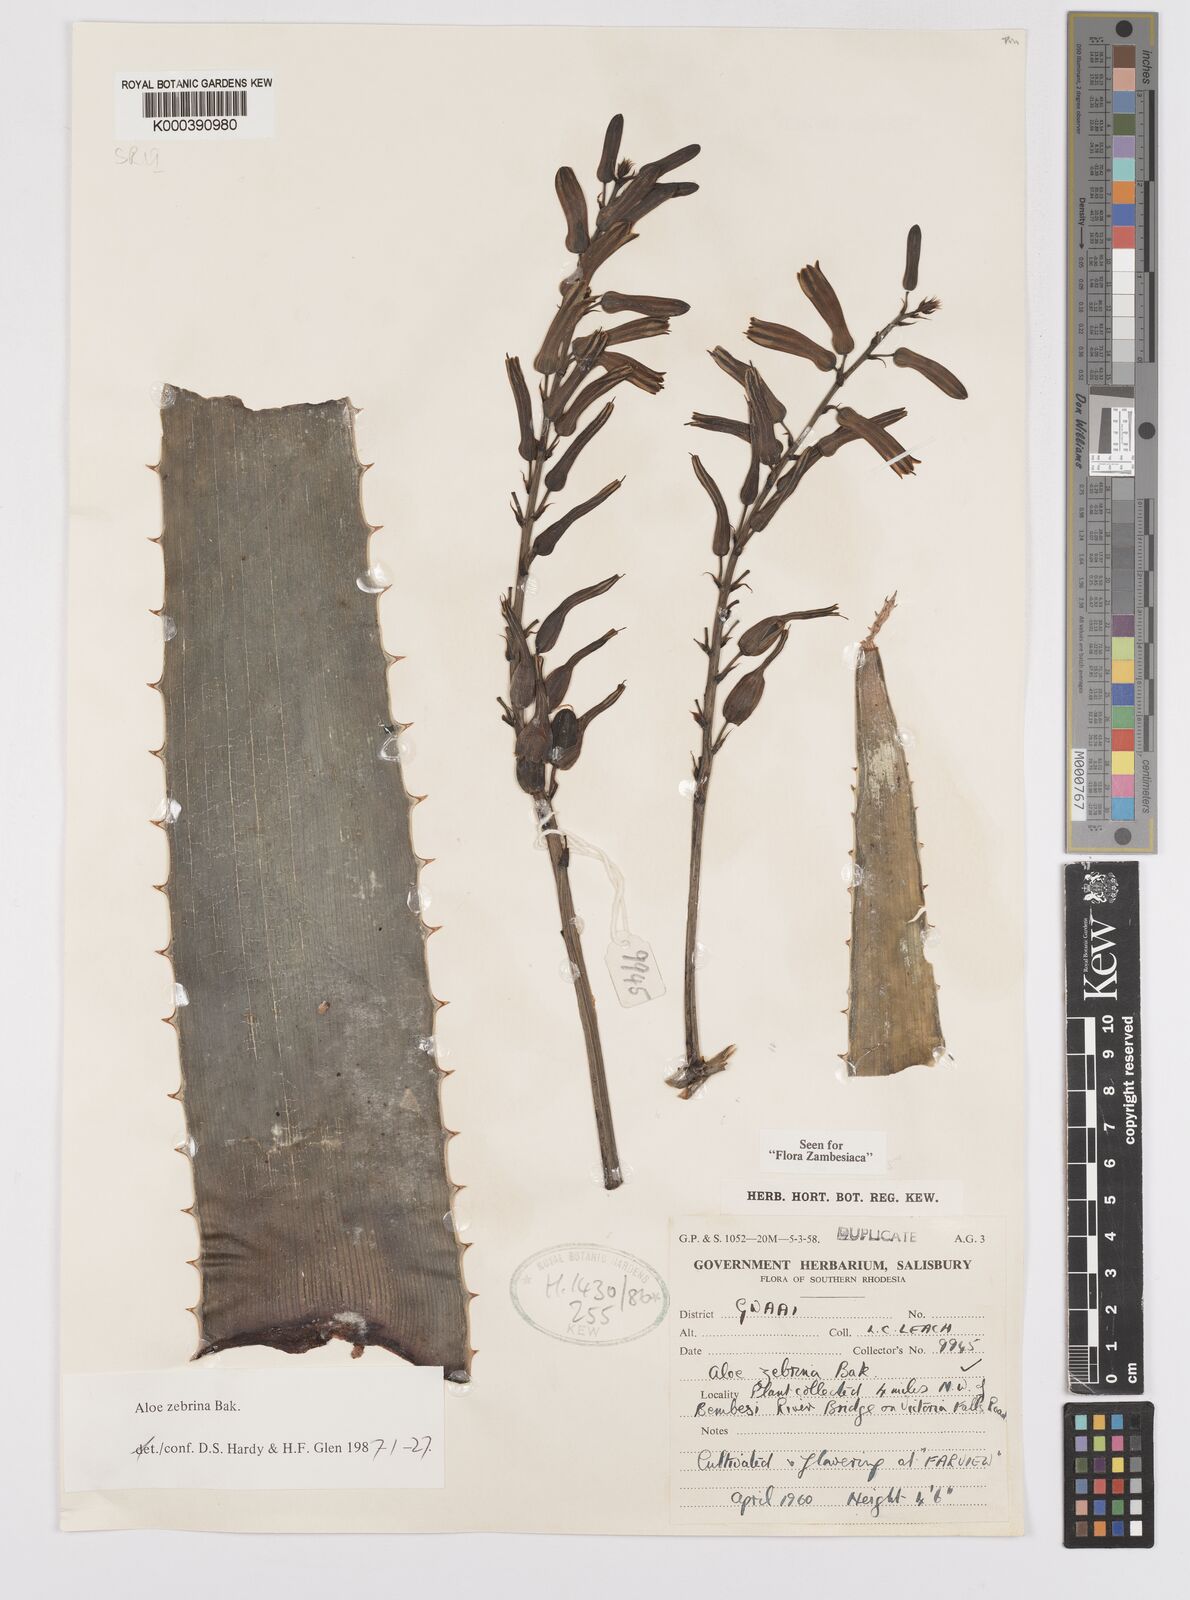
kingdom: Plantae
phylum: Tracheophyta
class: Liliopsida
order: Asparagales
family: Asphodelaceae
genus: Aloe
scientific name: Aloe zebrina
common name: Zebra-leaf aloe
